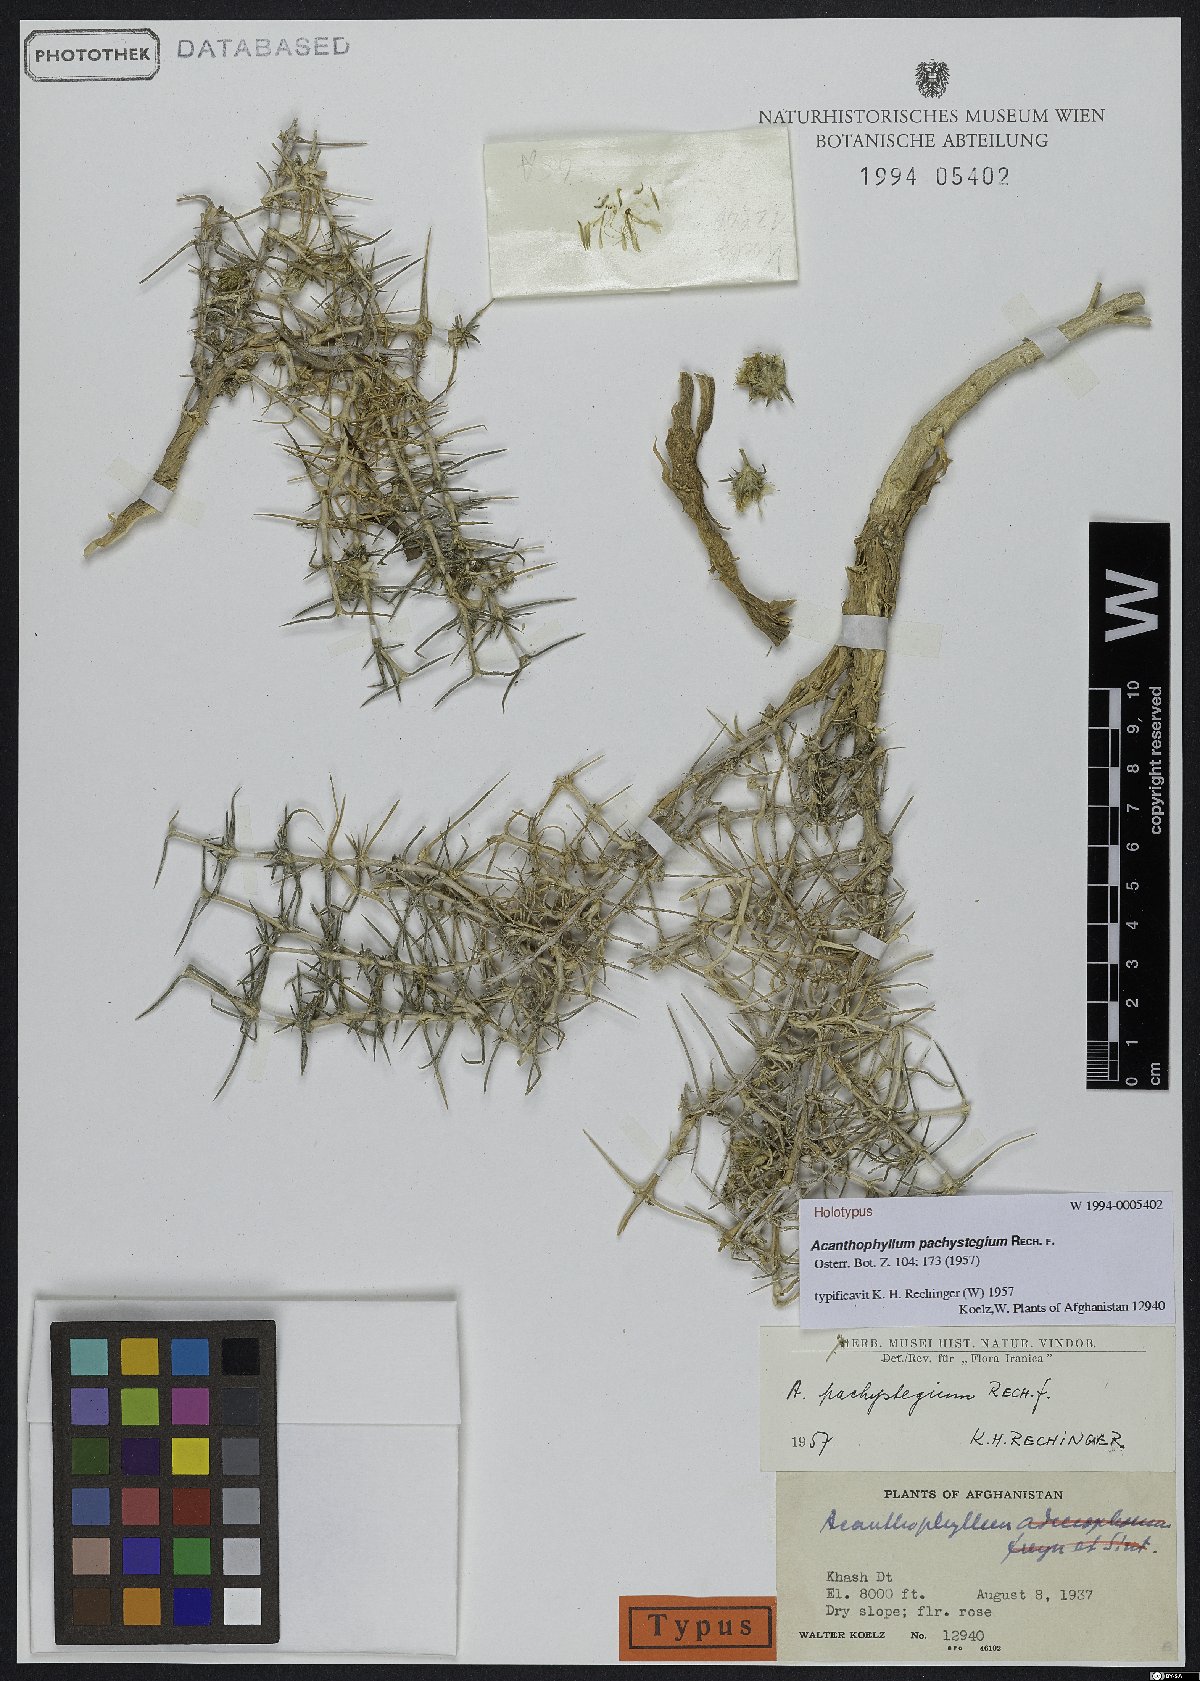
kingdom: Plantae
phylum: Tracheophyta
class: Magnoliopsida
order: Caryophyllales
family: Caryophyllaceae
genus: Acanthophyllum
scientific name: Acanthophyllum pachystegium
